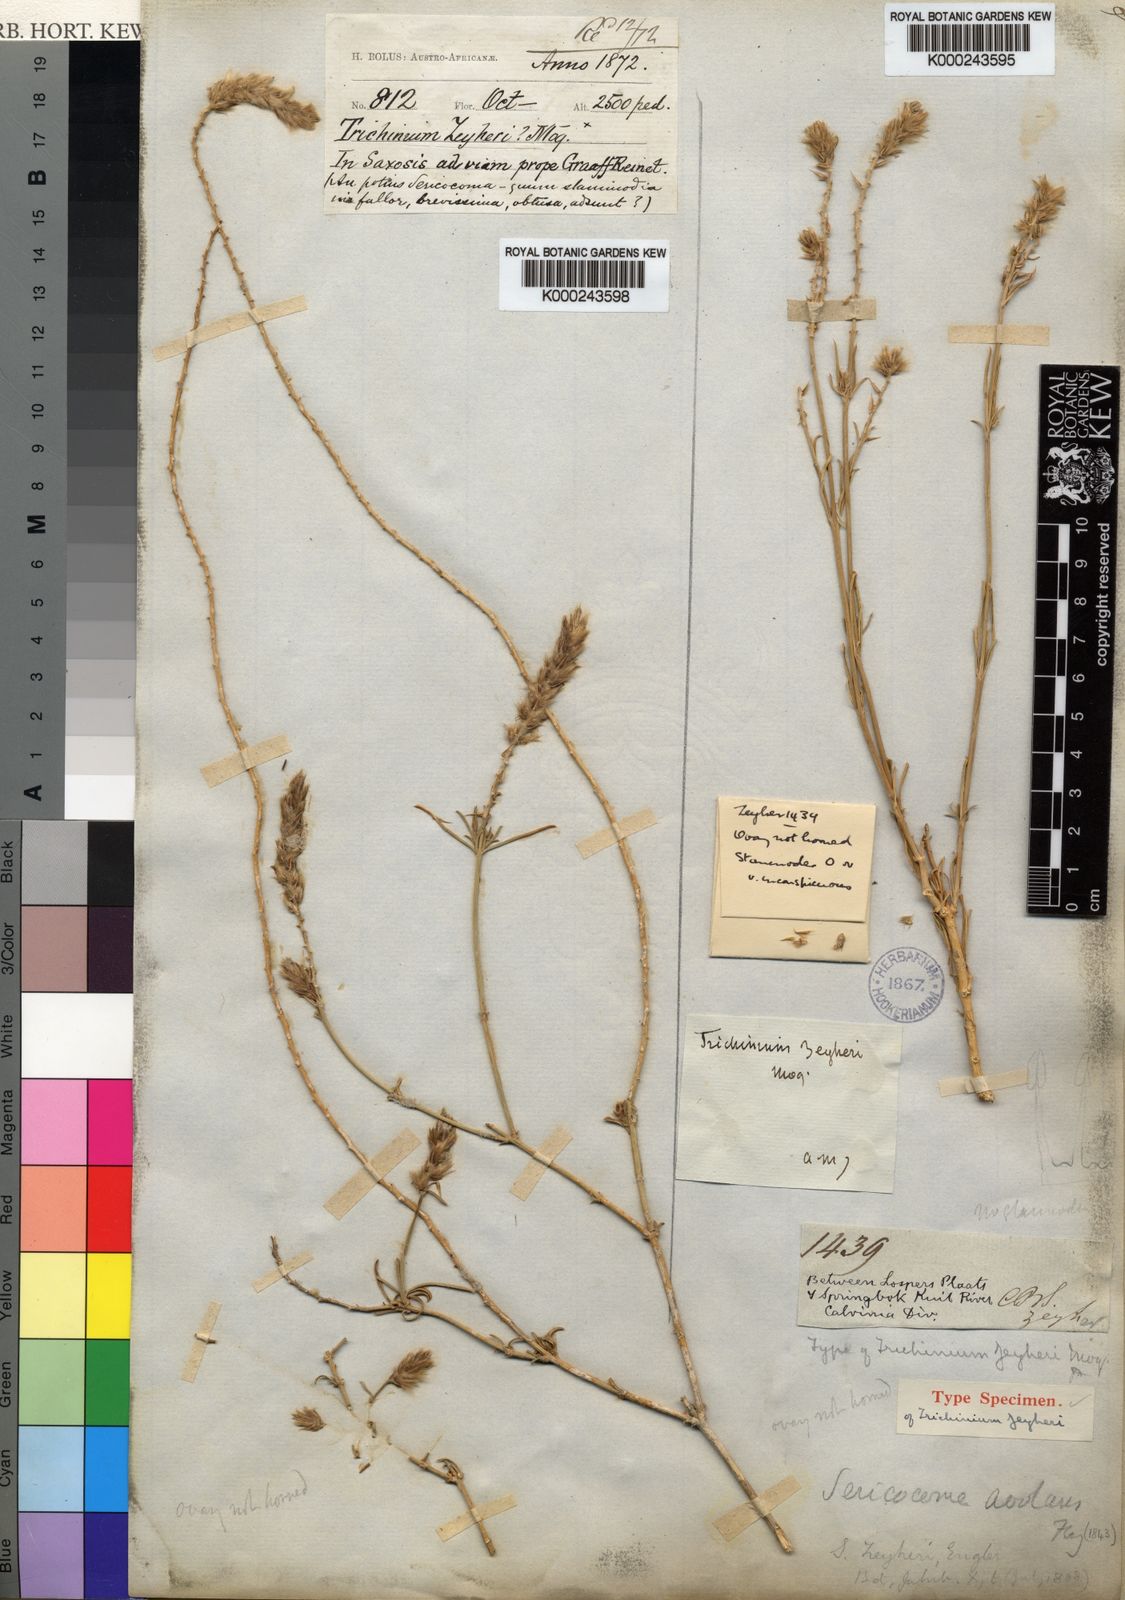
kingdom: Plantae
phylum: Tracheophyta
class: Magnoliopsida
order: Caryophyllales
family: Amaranthaceae
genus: Sericocoma
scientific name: Sericocoma avolans
